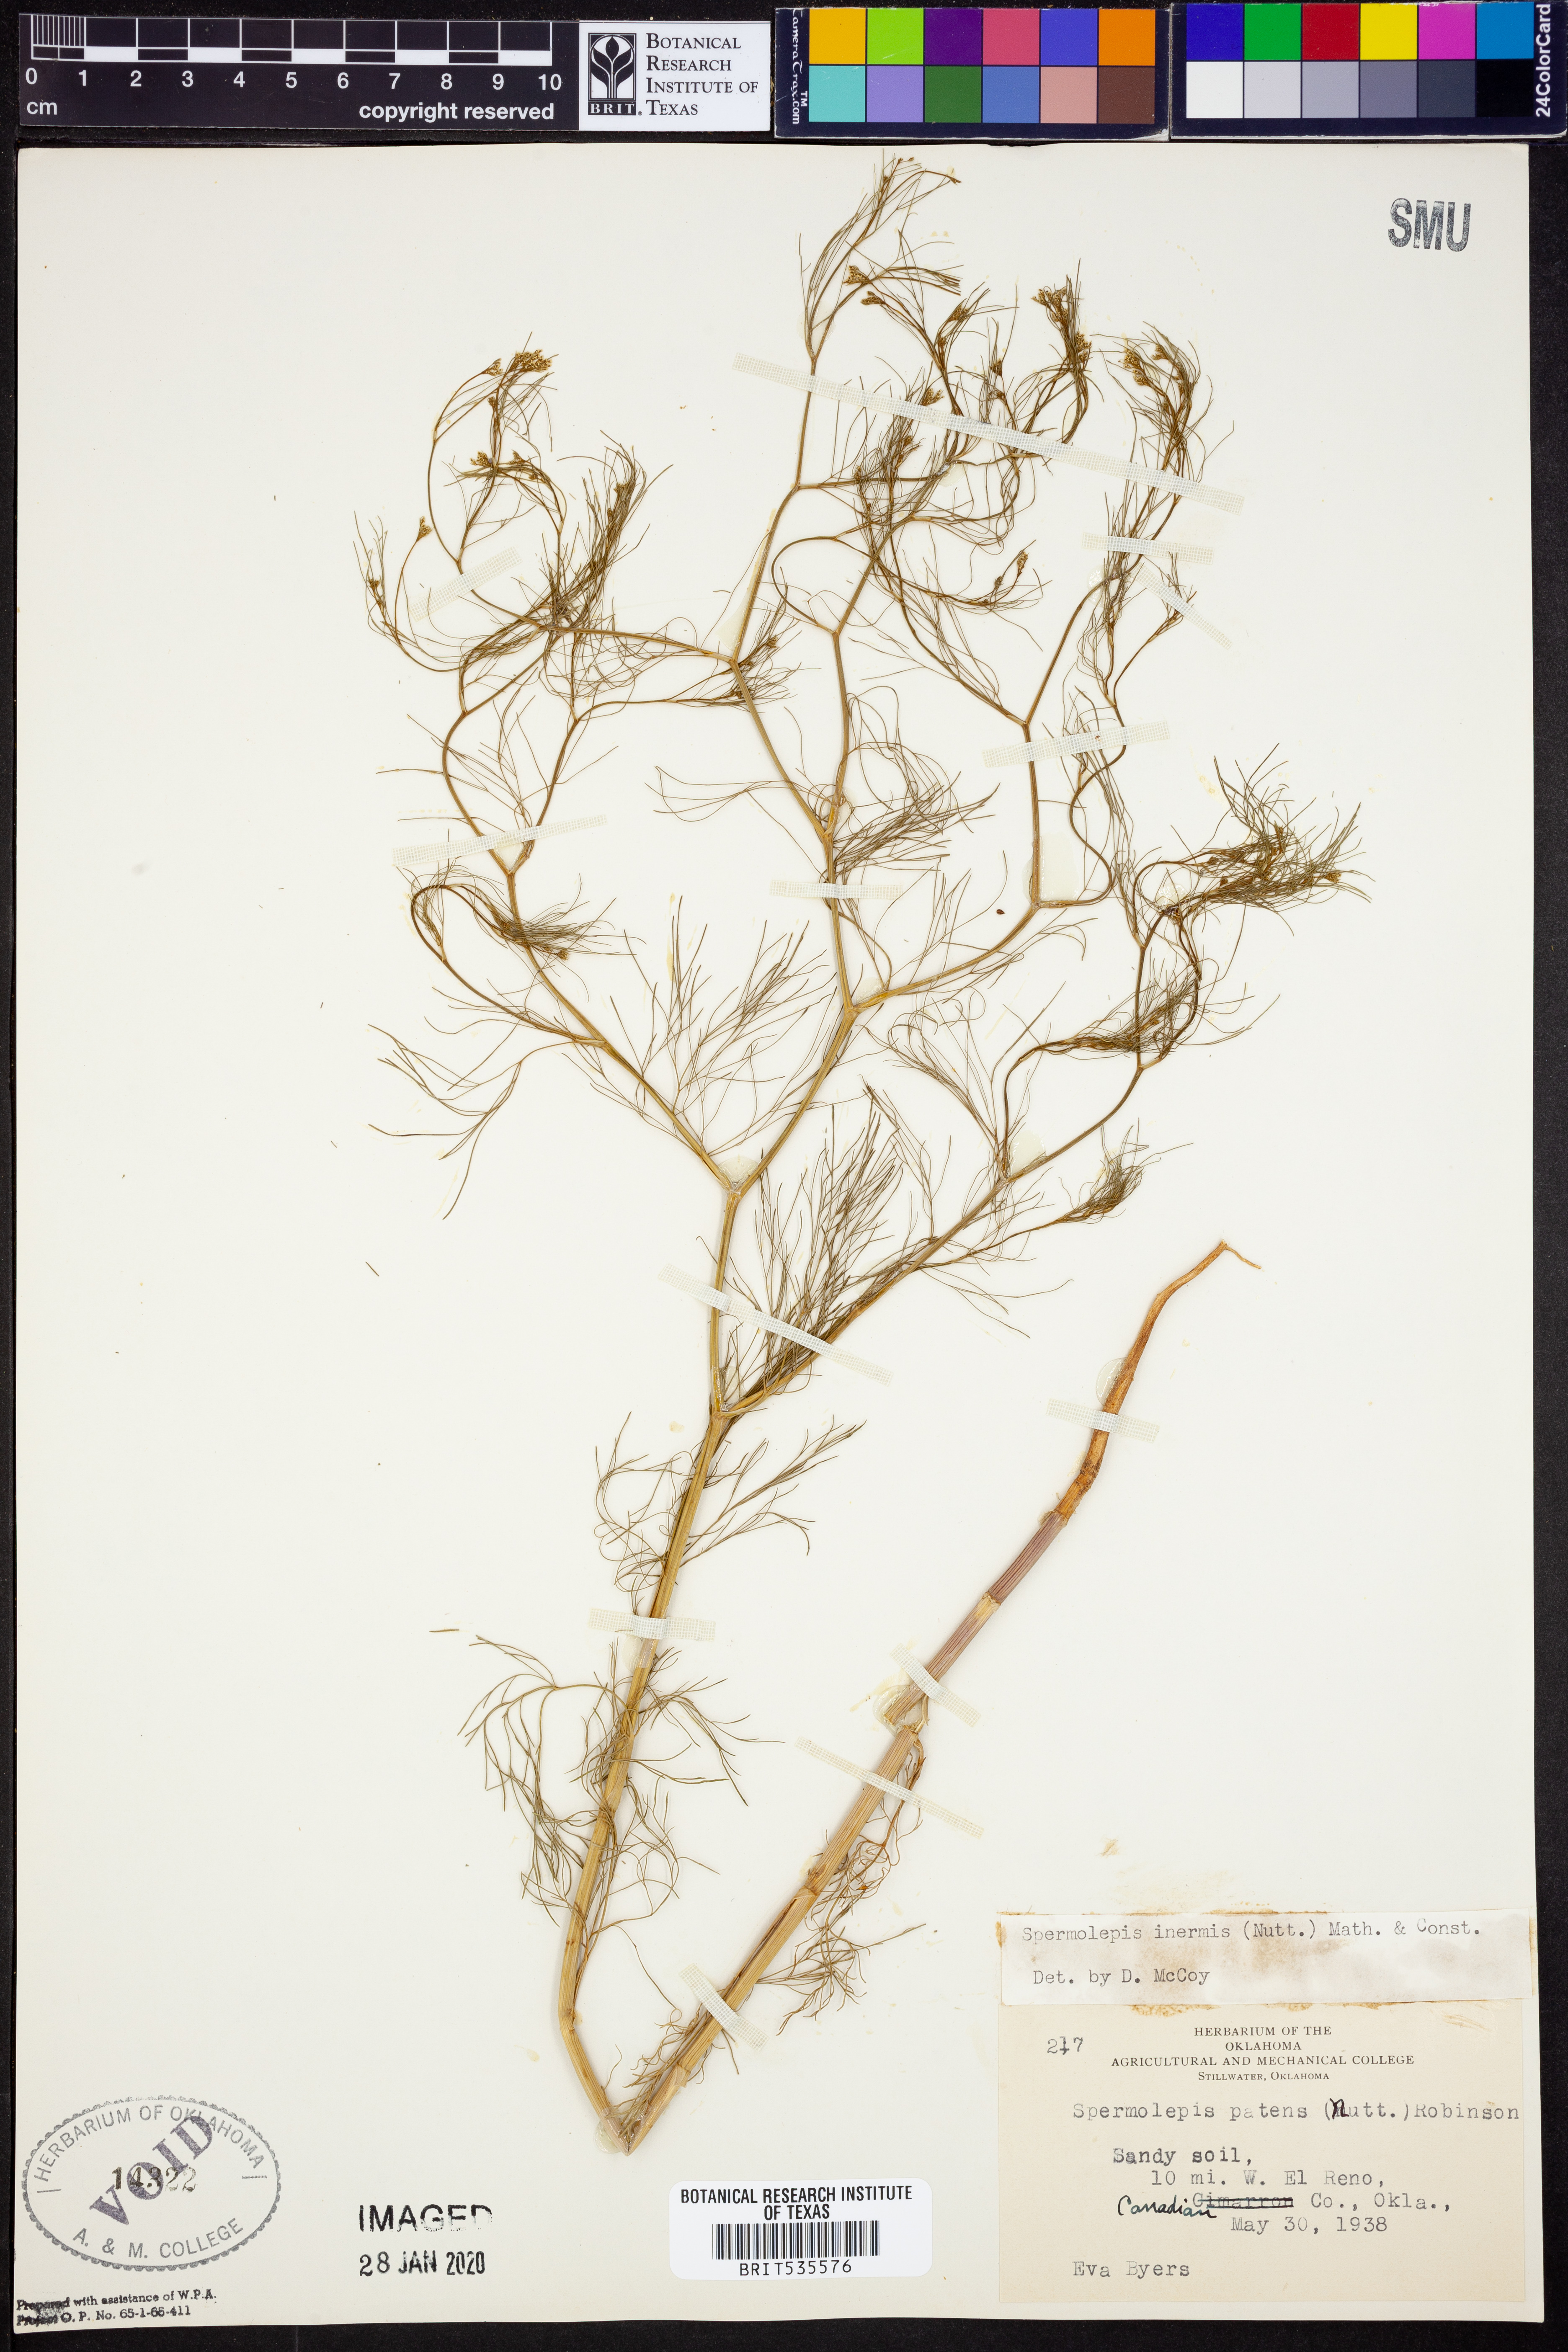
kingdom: Plantae
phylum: Tracheophyta
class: Magnoliopsida
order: Apiales
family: Apiaceae
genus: Spermolepis
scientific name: Spermolepis inermis
